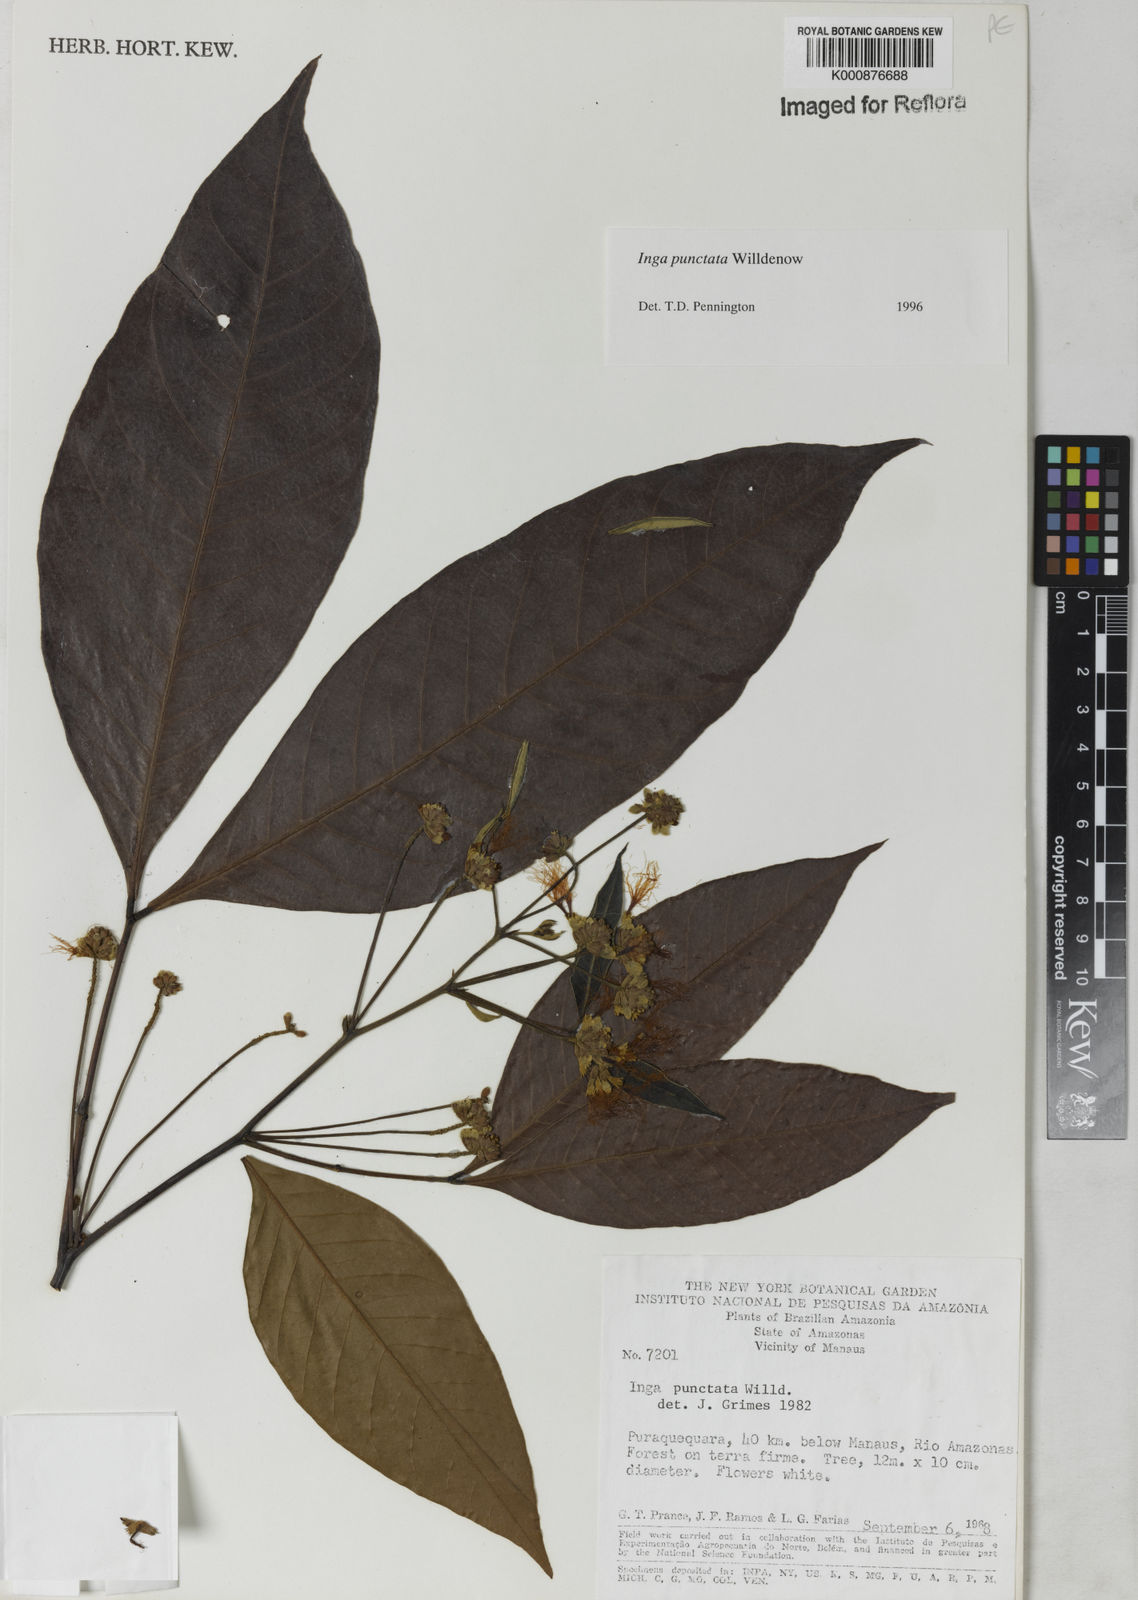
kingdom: Plantae
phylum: Tracheophyta
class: Magnoliopsida
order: Fabales
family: Fabaceae
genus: Inga
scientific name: Inga punctata
